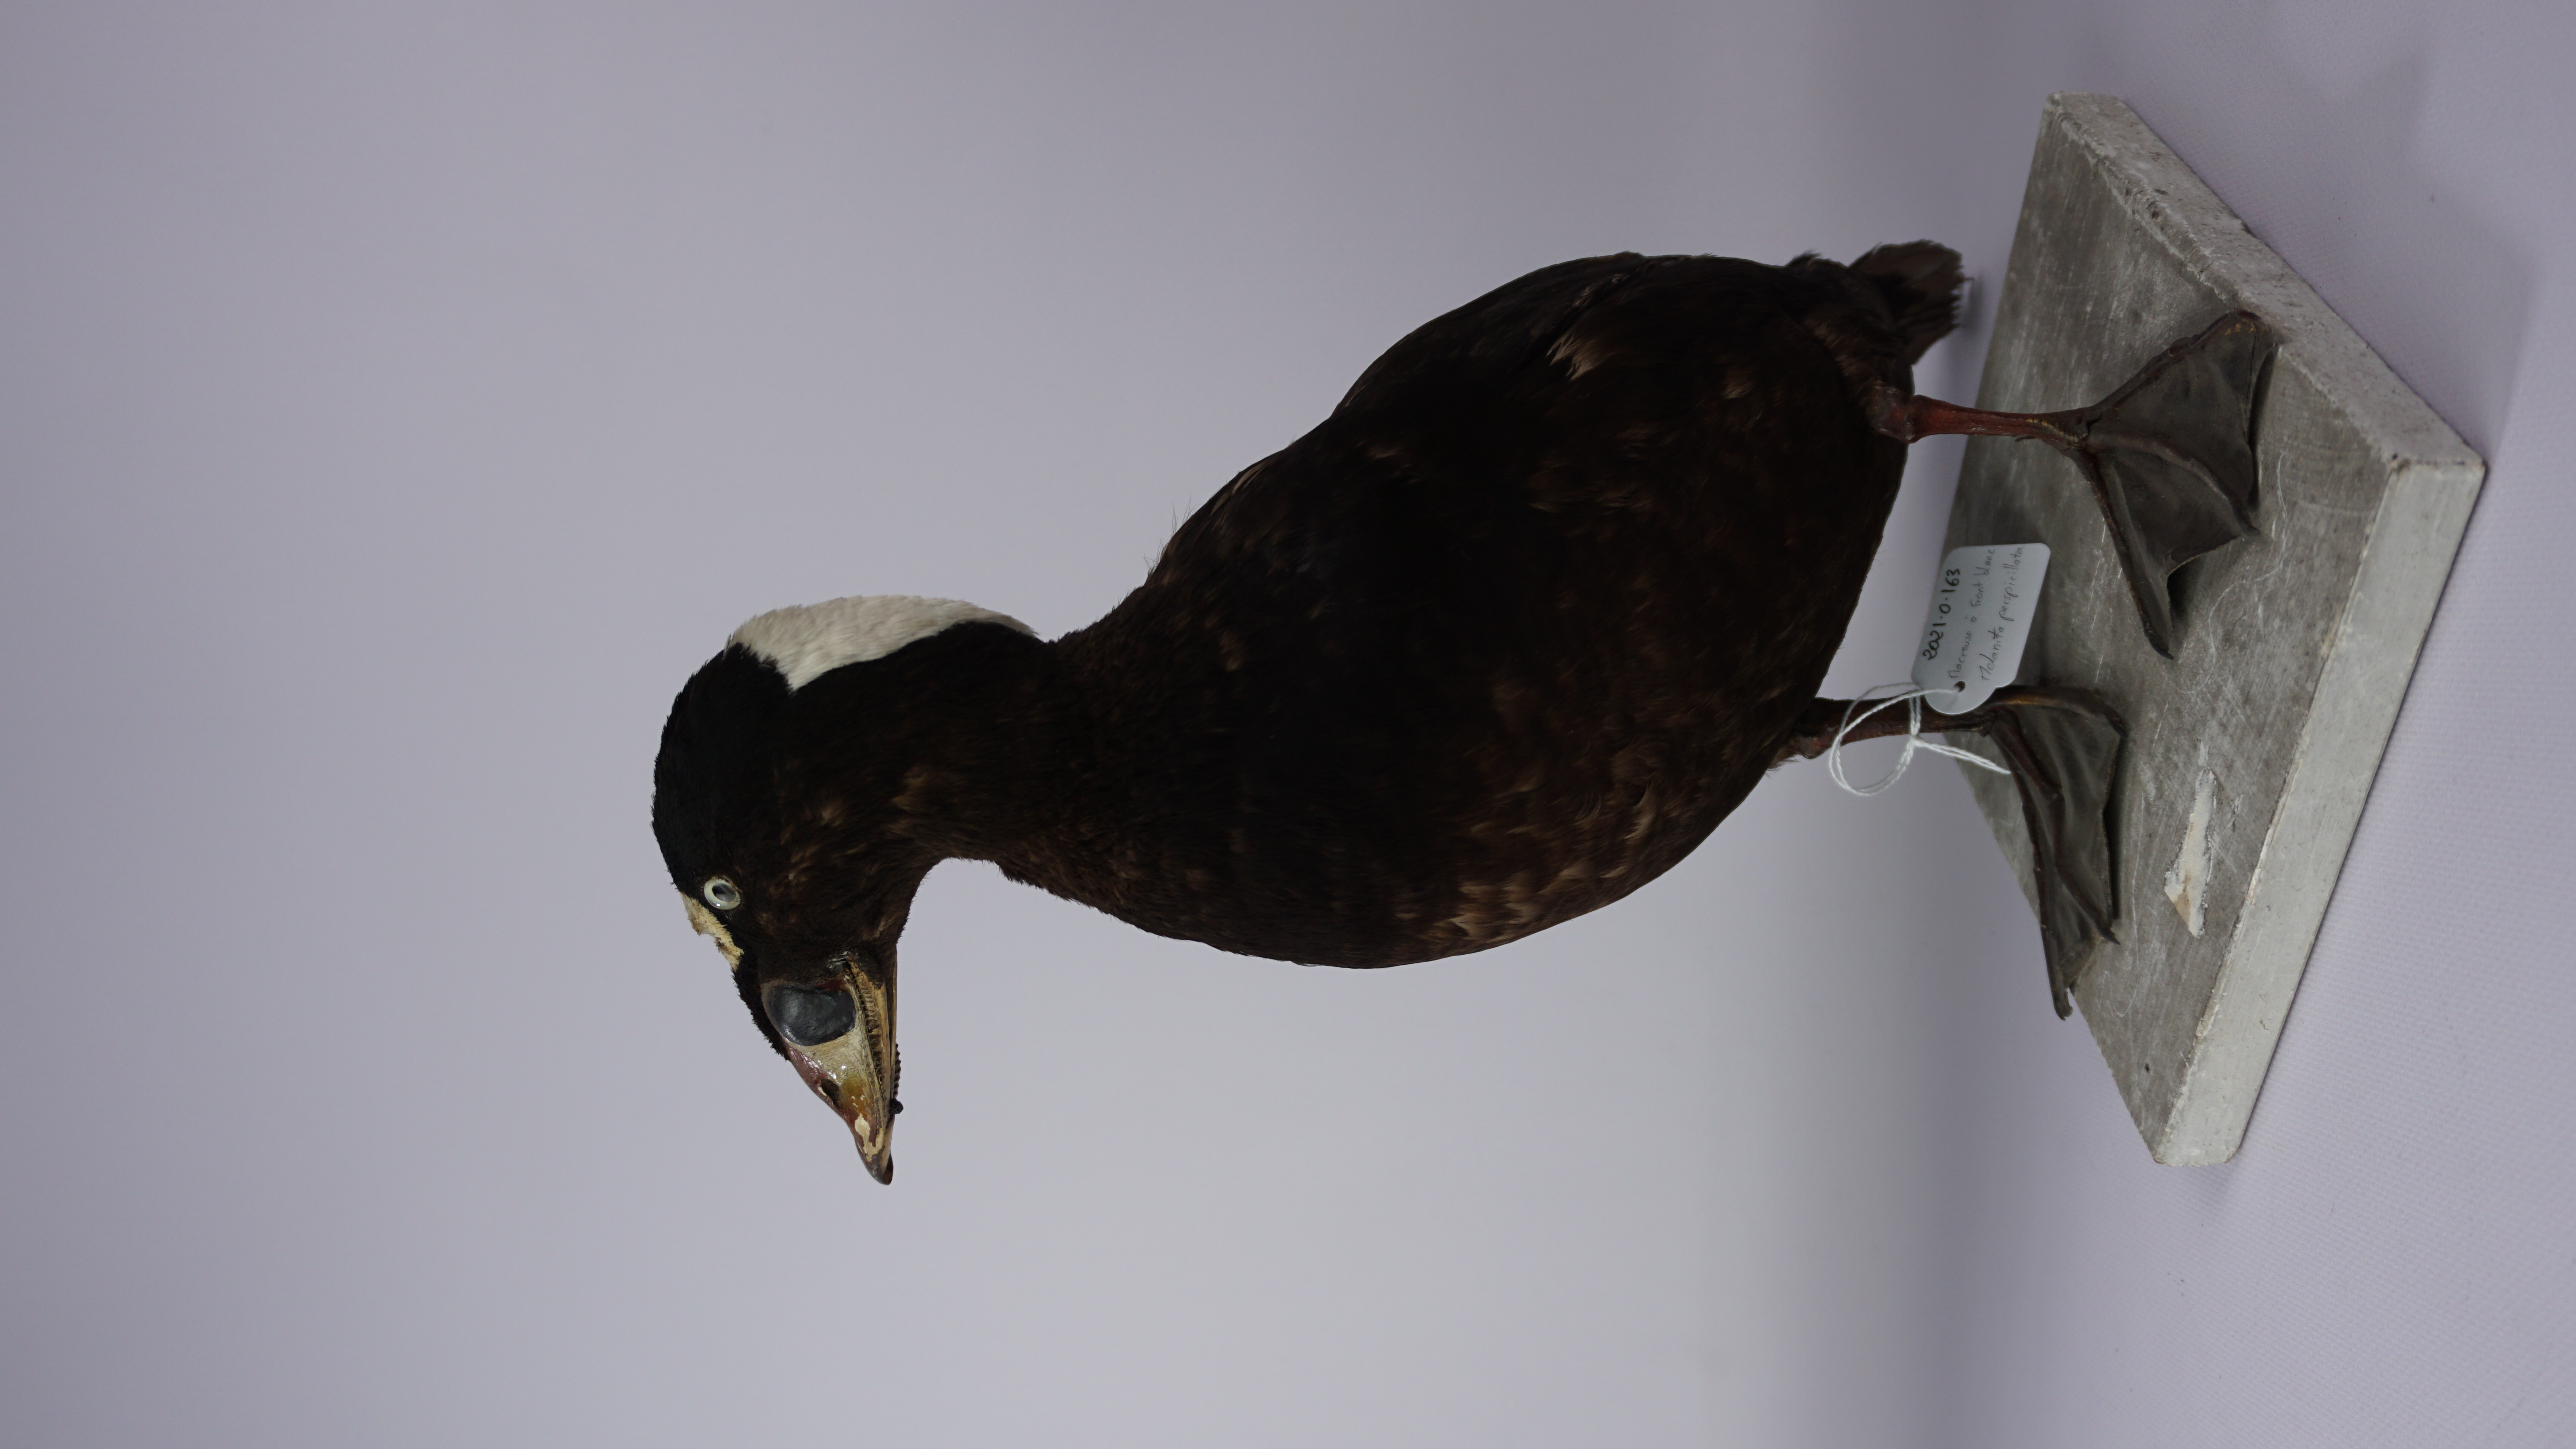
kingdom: Animalia
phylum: Chordata
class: Aves
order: Anseriformes
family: Anatidae
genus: Melanitta
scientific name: Melanitta perspicillata
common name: Surf scoter
